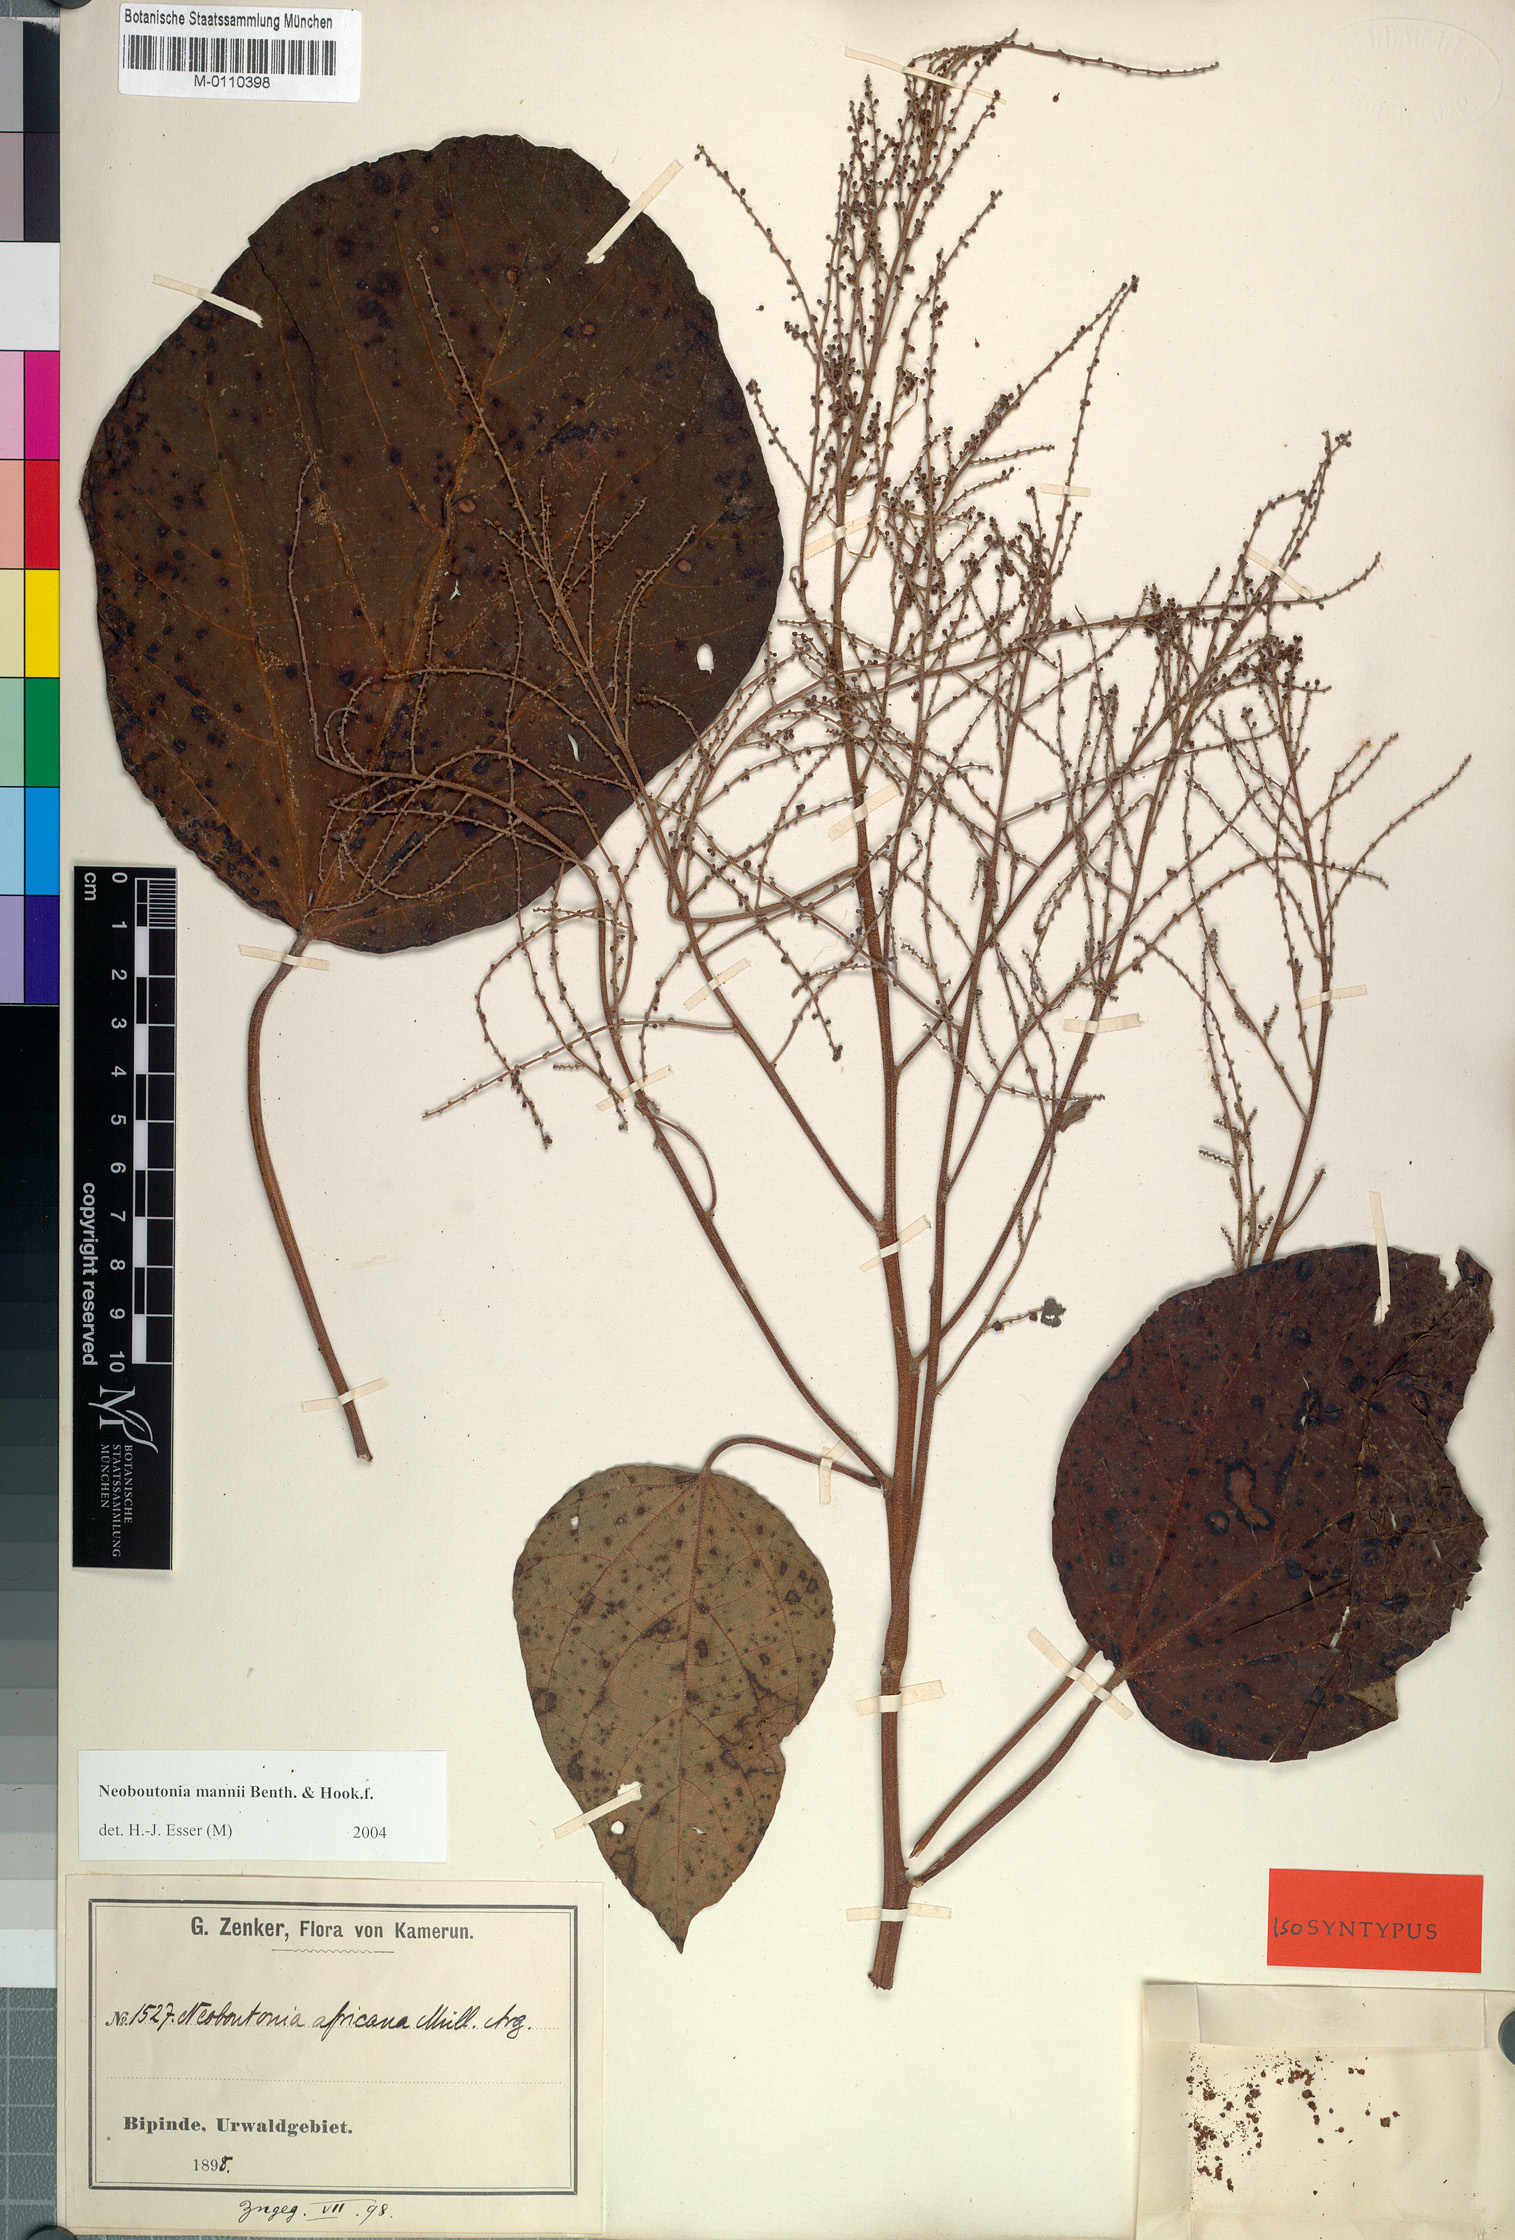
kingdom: Plantae
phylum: Tracheophyta
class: Magnoliopsida
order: Malpighiales
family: Euphorbiaceae
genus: Neoboutonia
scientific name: Neoboutonia mannii
